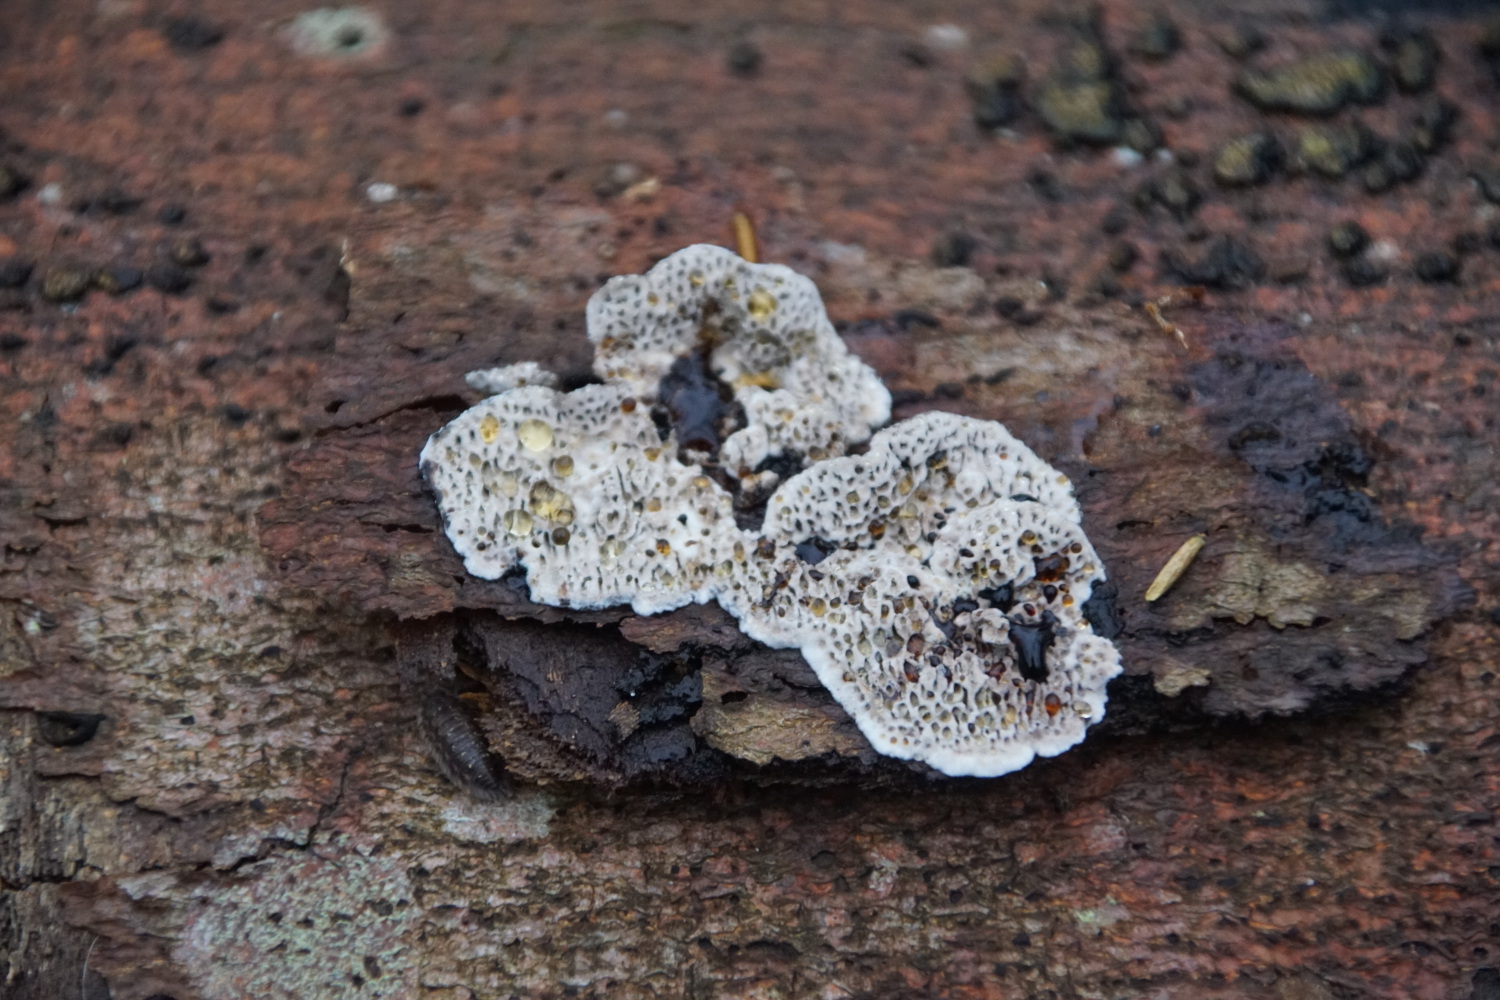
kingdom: Fungi
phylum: Basidiomycota
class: Agaricomycetes
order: Polyporales
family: Polyporaceae
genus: Podofomes
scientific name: Podofomes mollis
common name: blød begporesvamp
